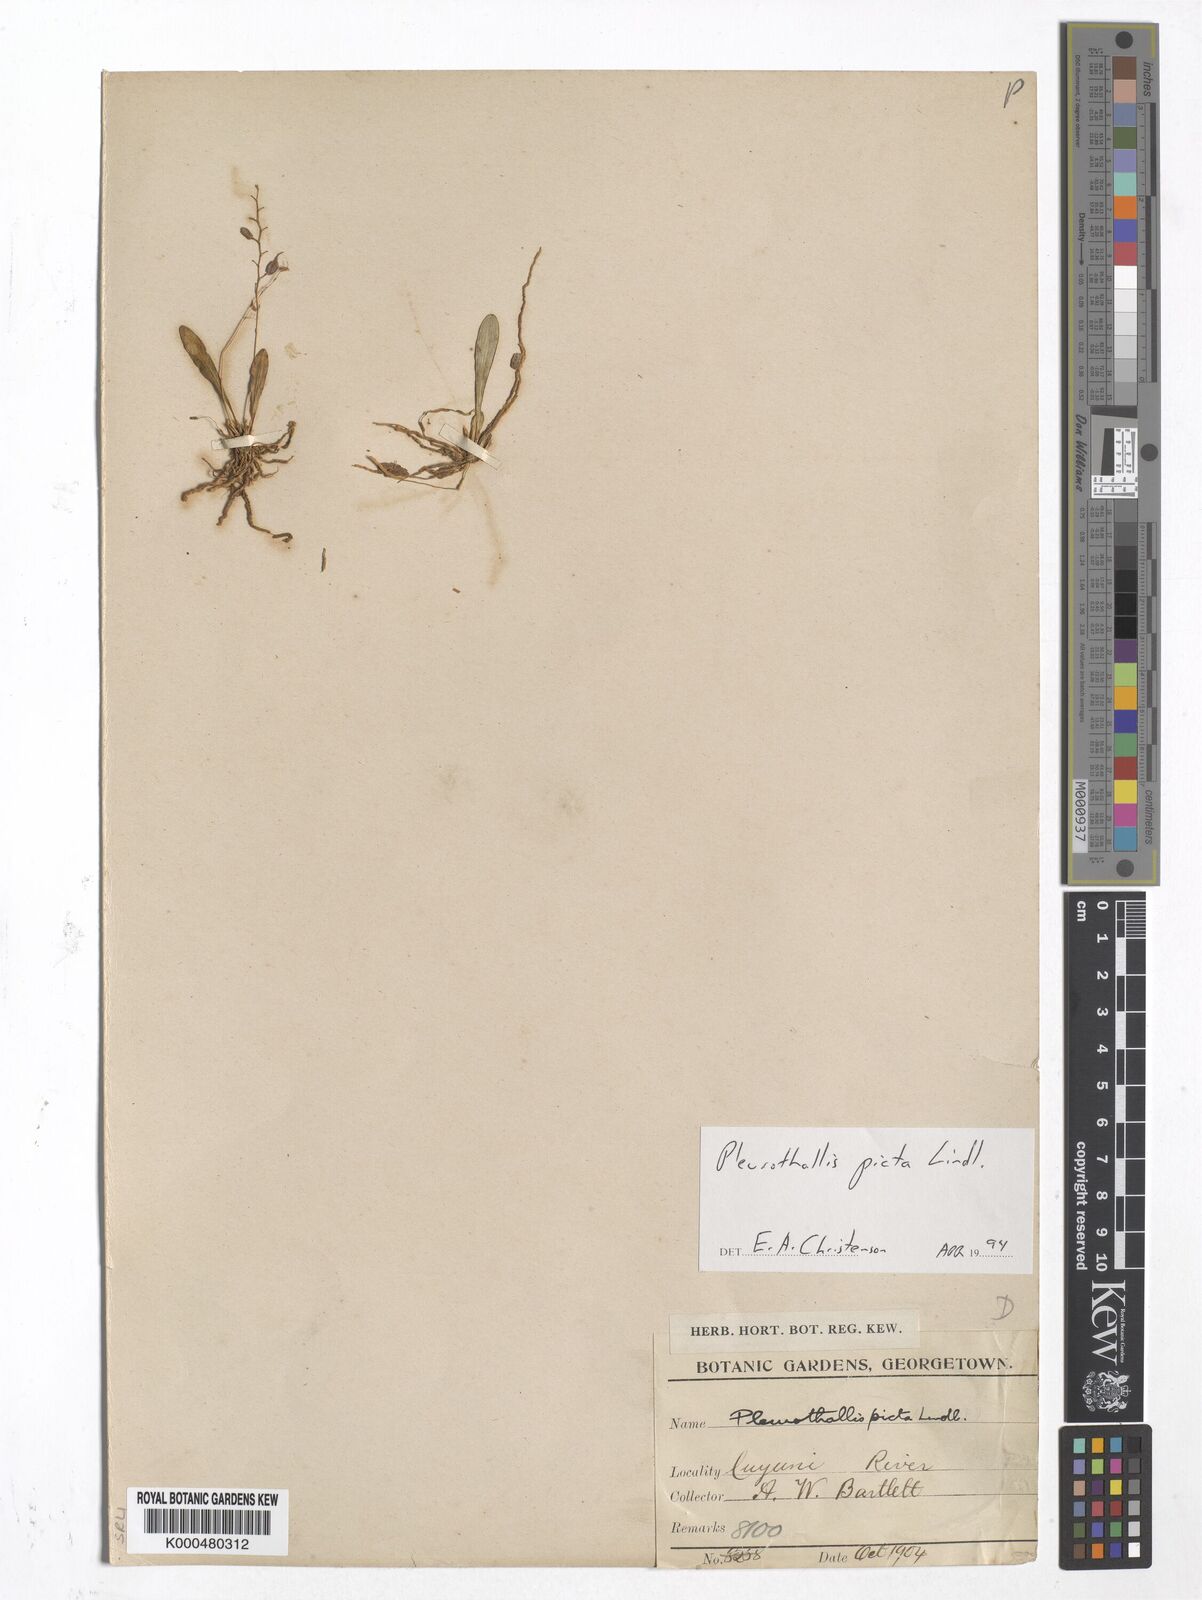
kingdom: Plantae
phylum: Tracheophyta
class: Liliopsida
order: Asparagales
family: Orchidaceae
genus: Specklinia
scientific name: Specklinia picta
